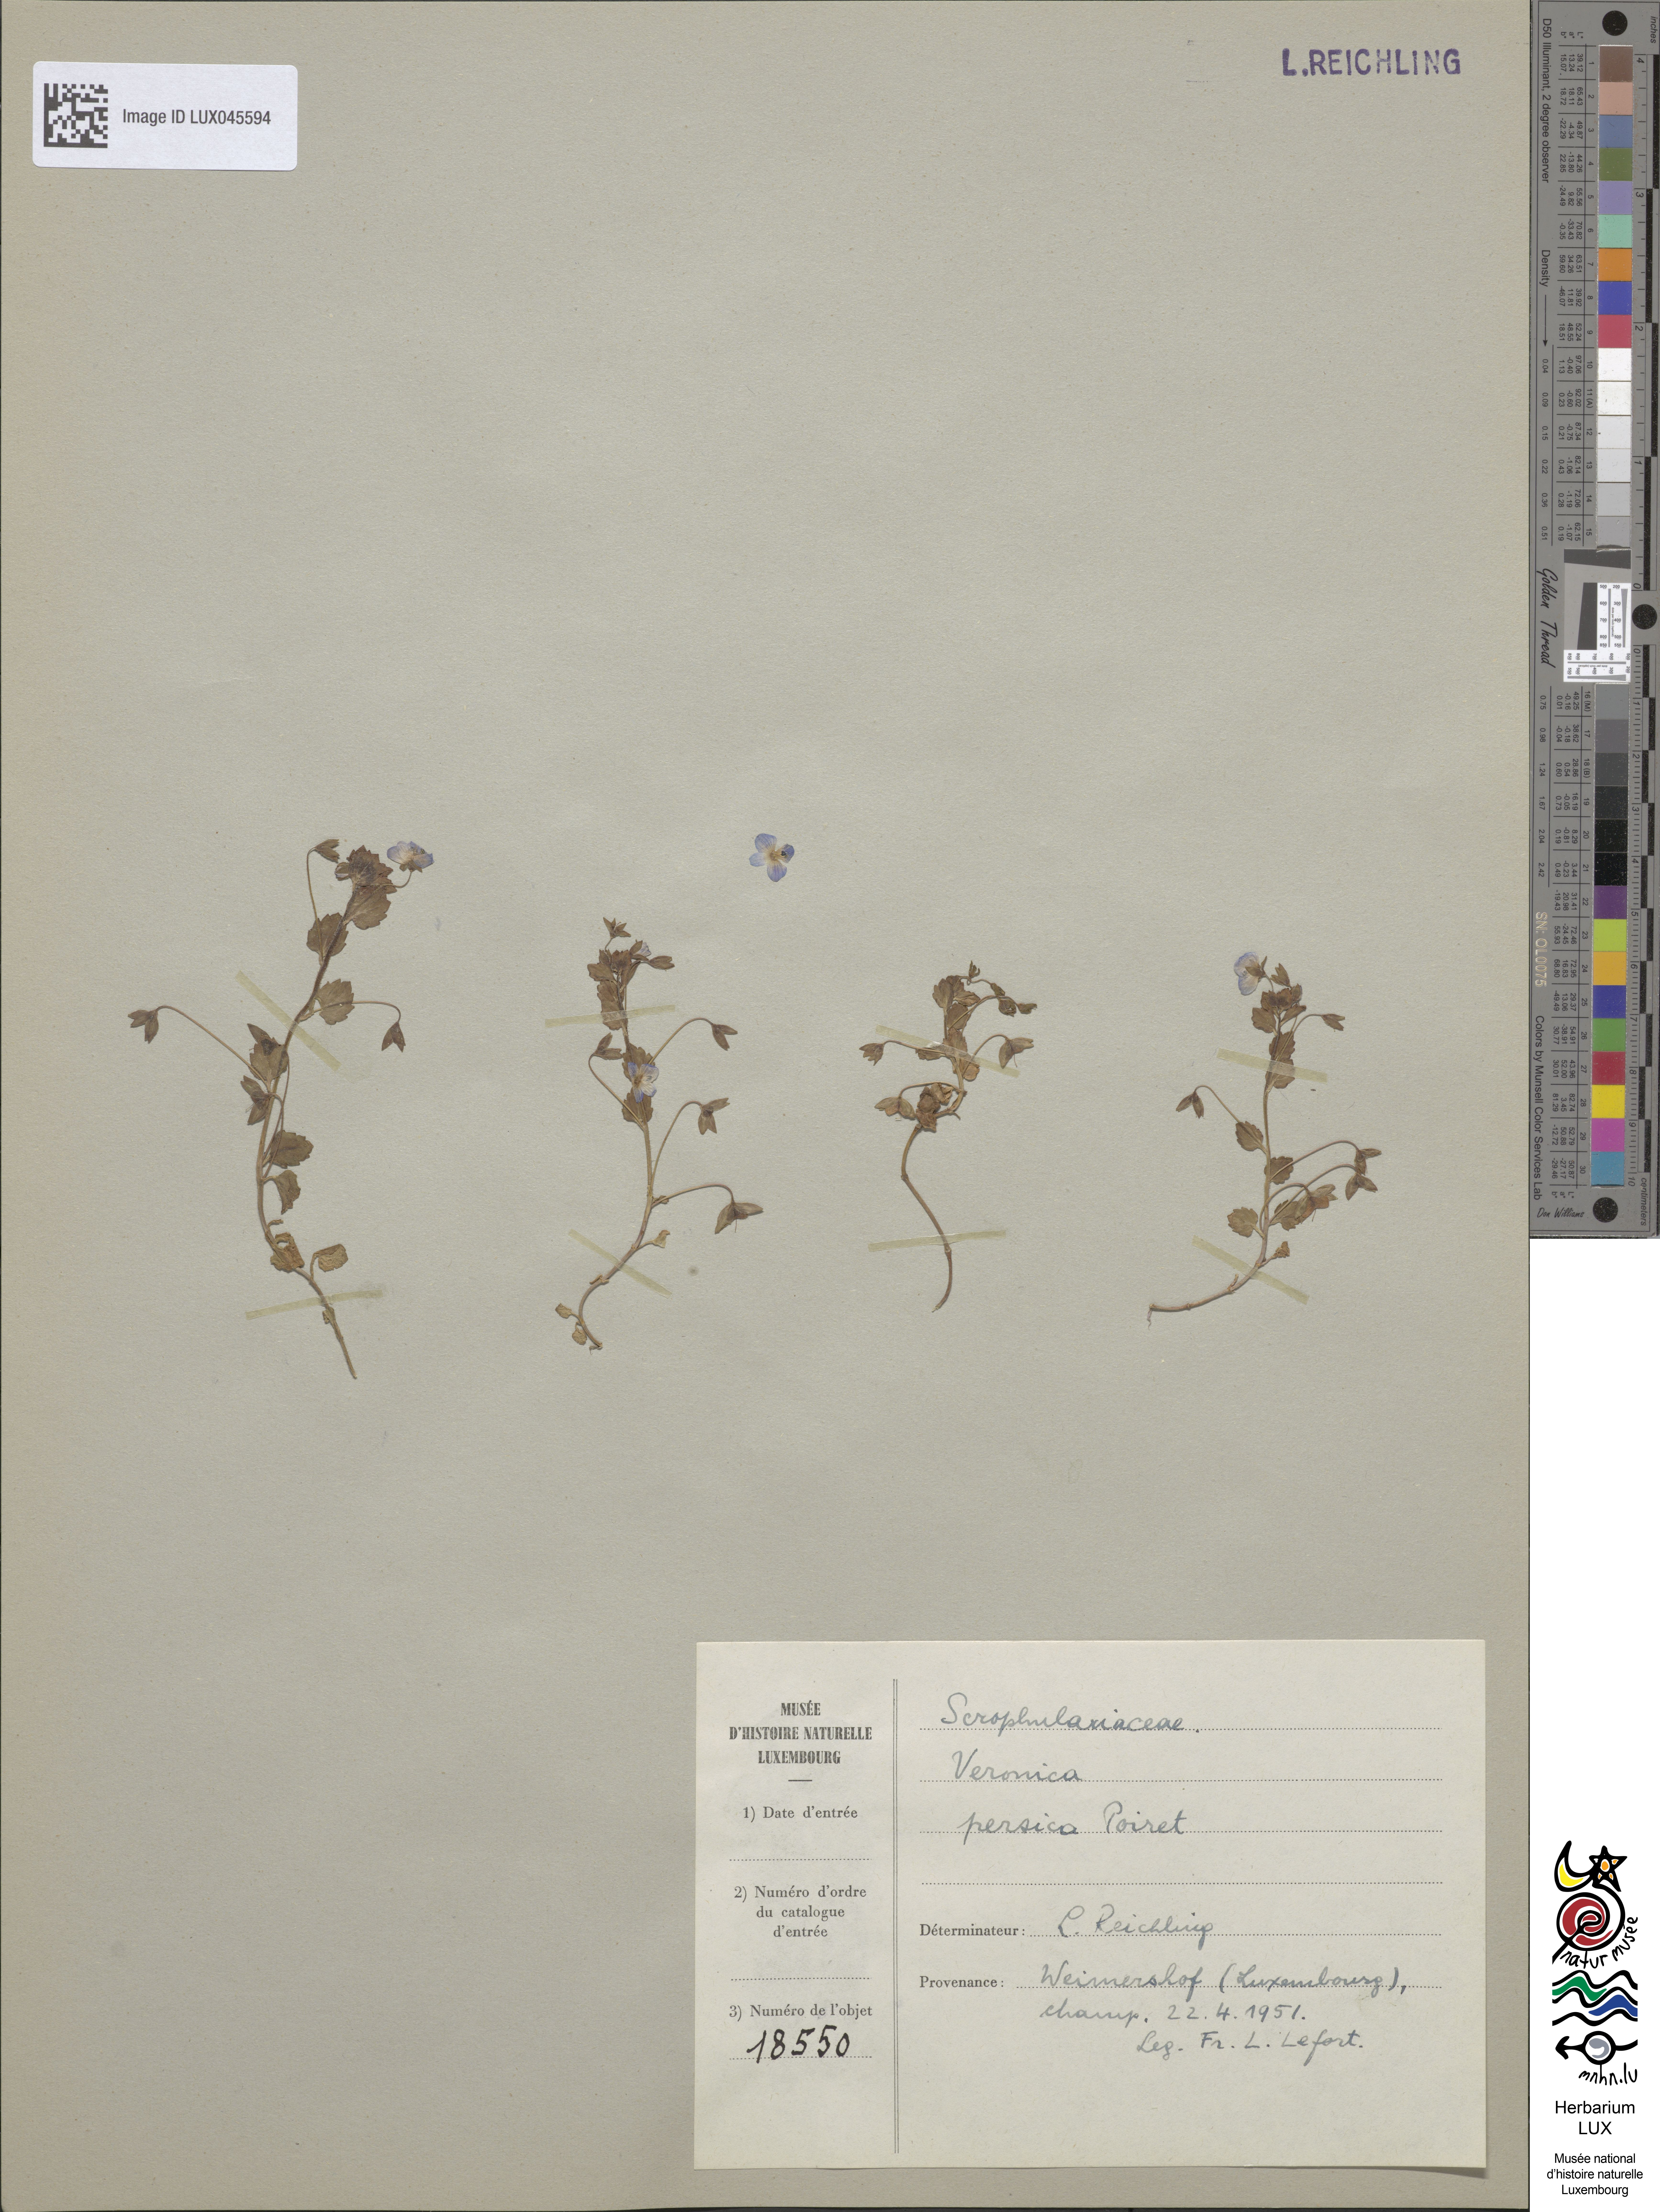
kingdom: Plantae
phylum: Tracheophyta
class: Magnoliopsida
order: Lamiales
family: Plantaginaceae
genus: Veronica
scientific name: Veronica persica
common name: Common field-speedwell
